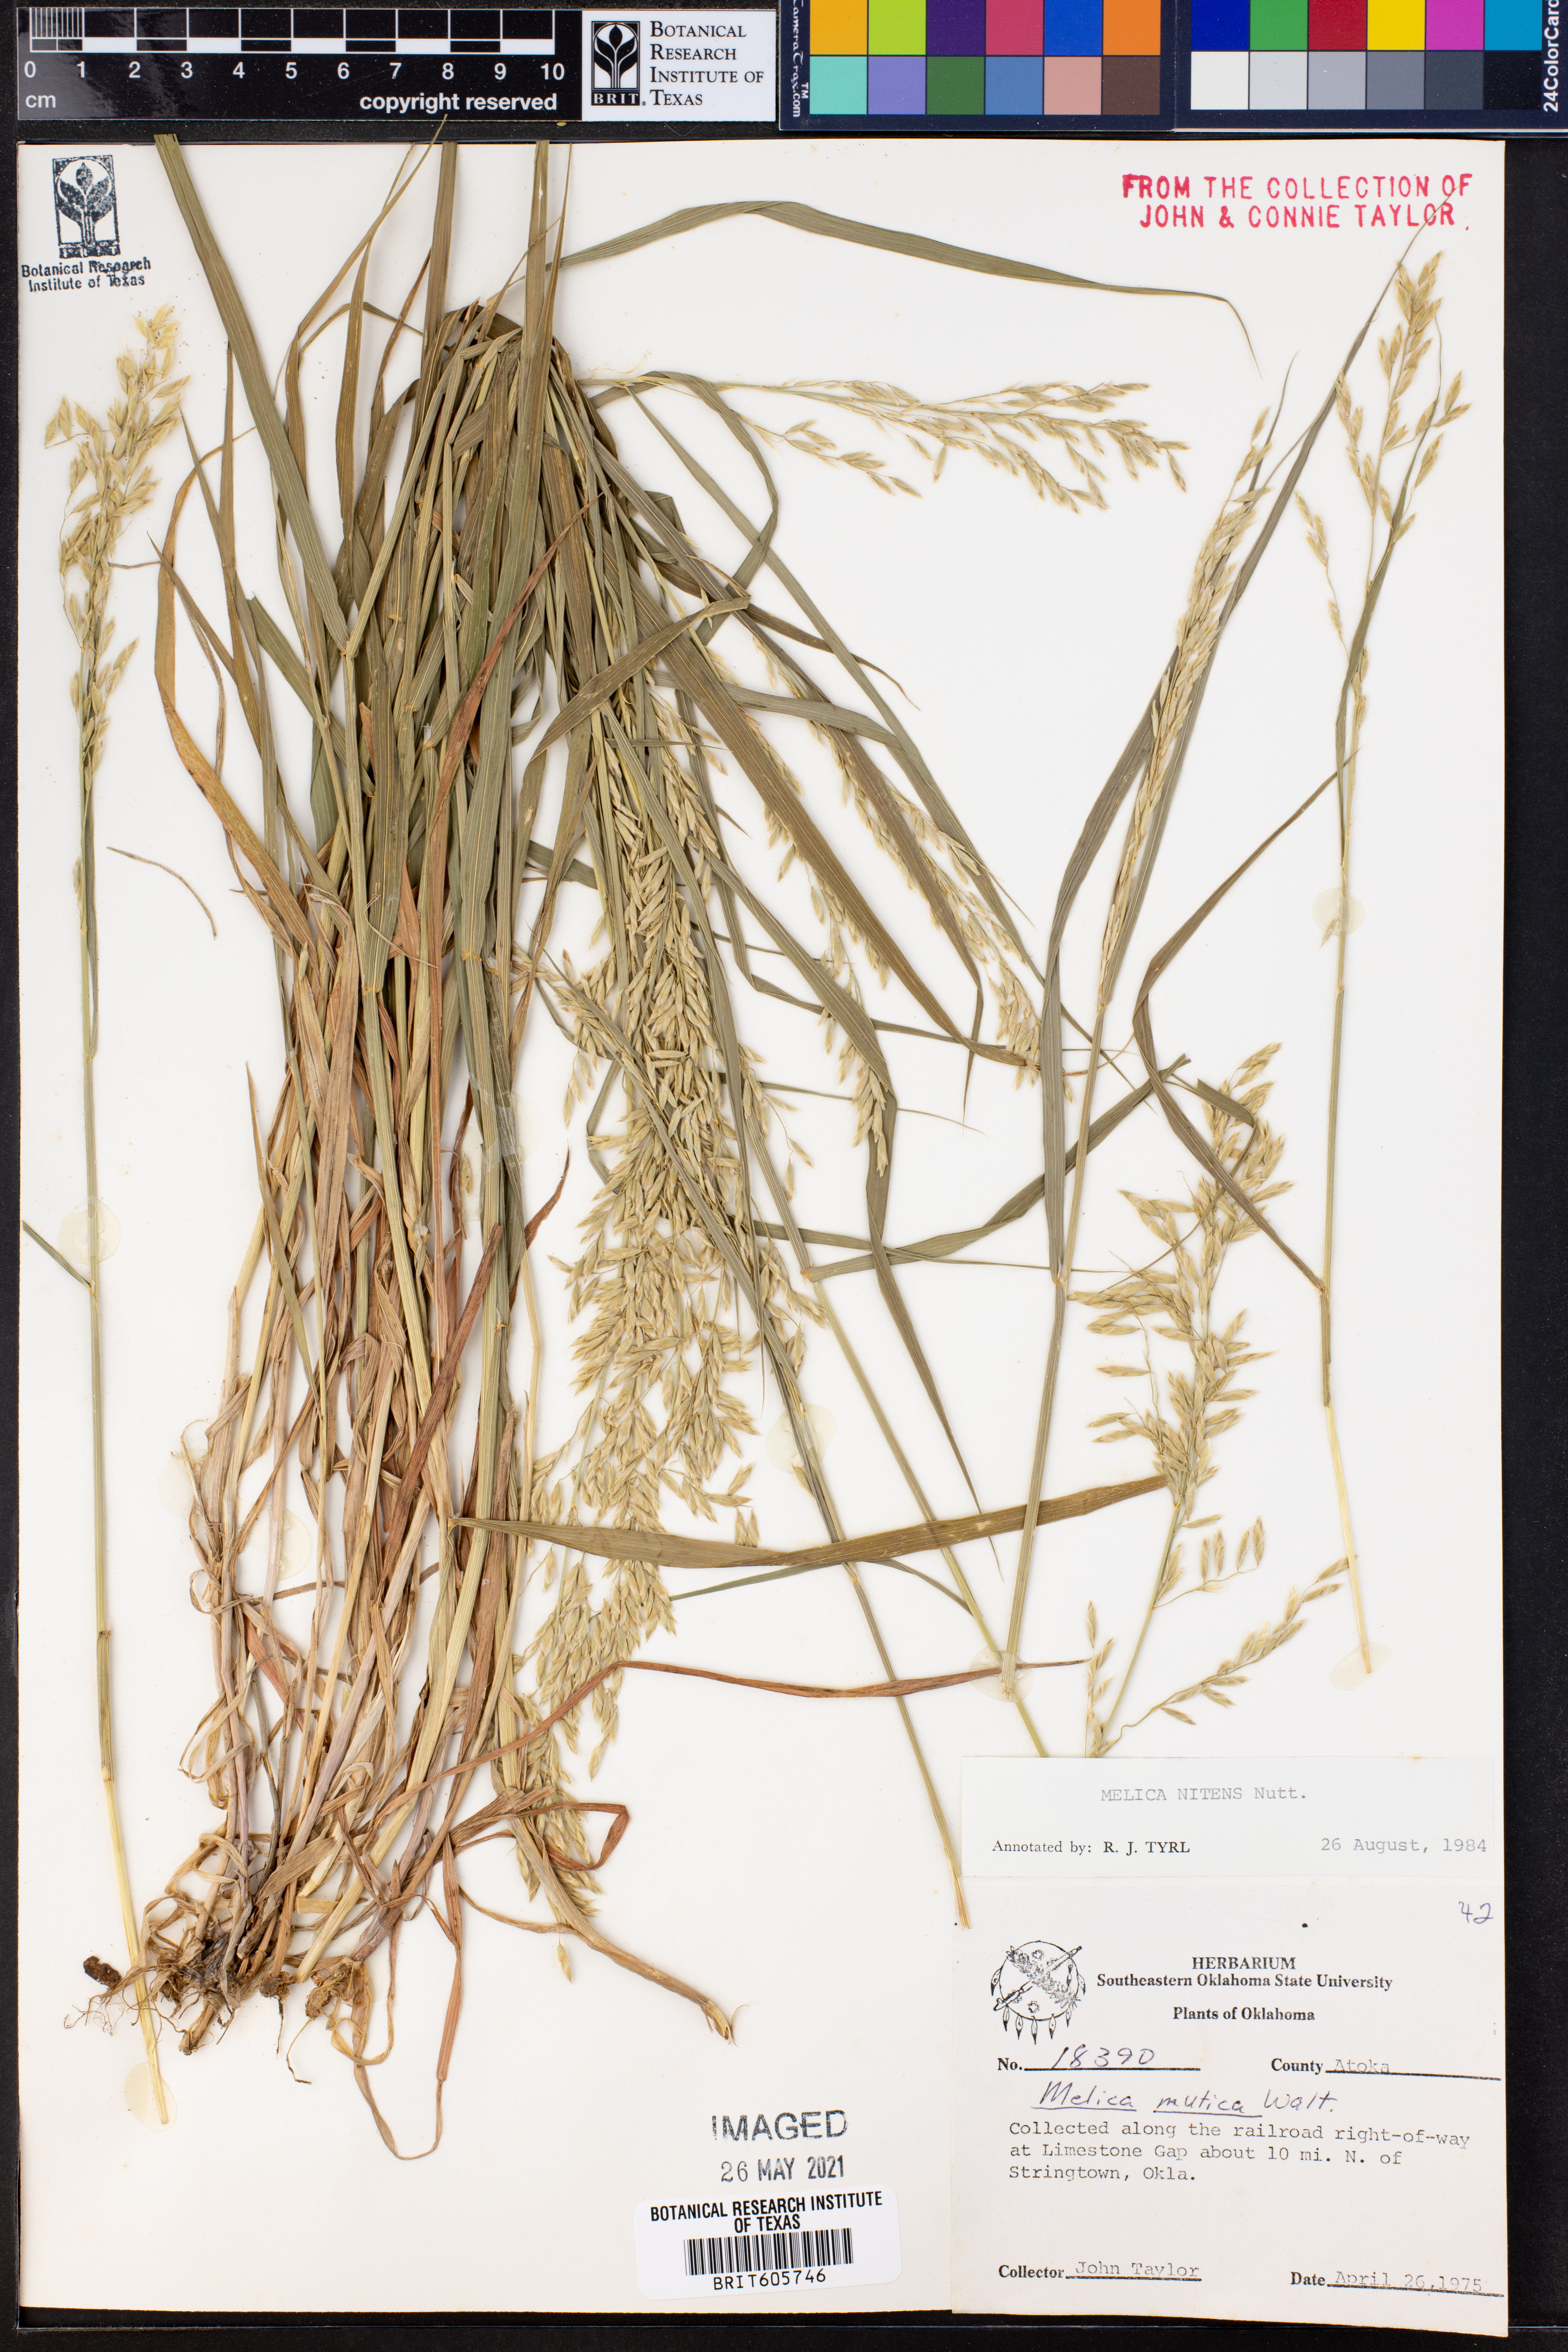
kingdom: Plantae
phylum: Tracheophyta
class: Liliopsida
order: Poales
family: Poaceae
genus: Melica
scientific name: Melica nitens
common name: Three-flower melic
